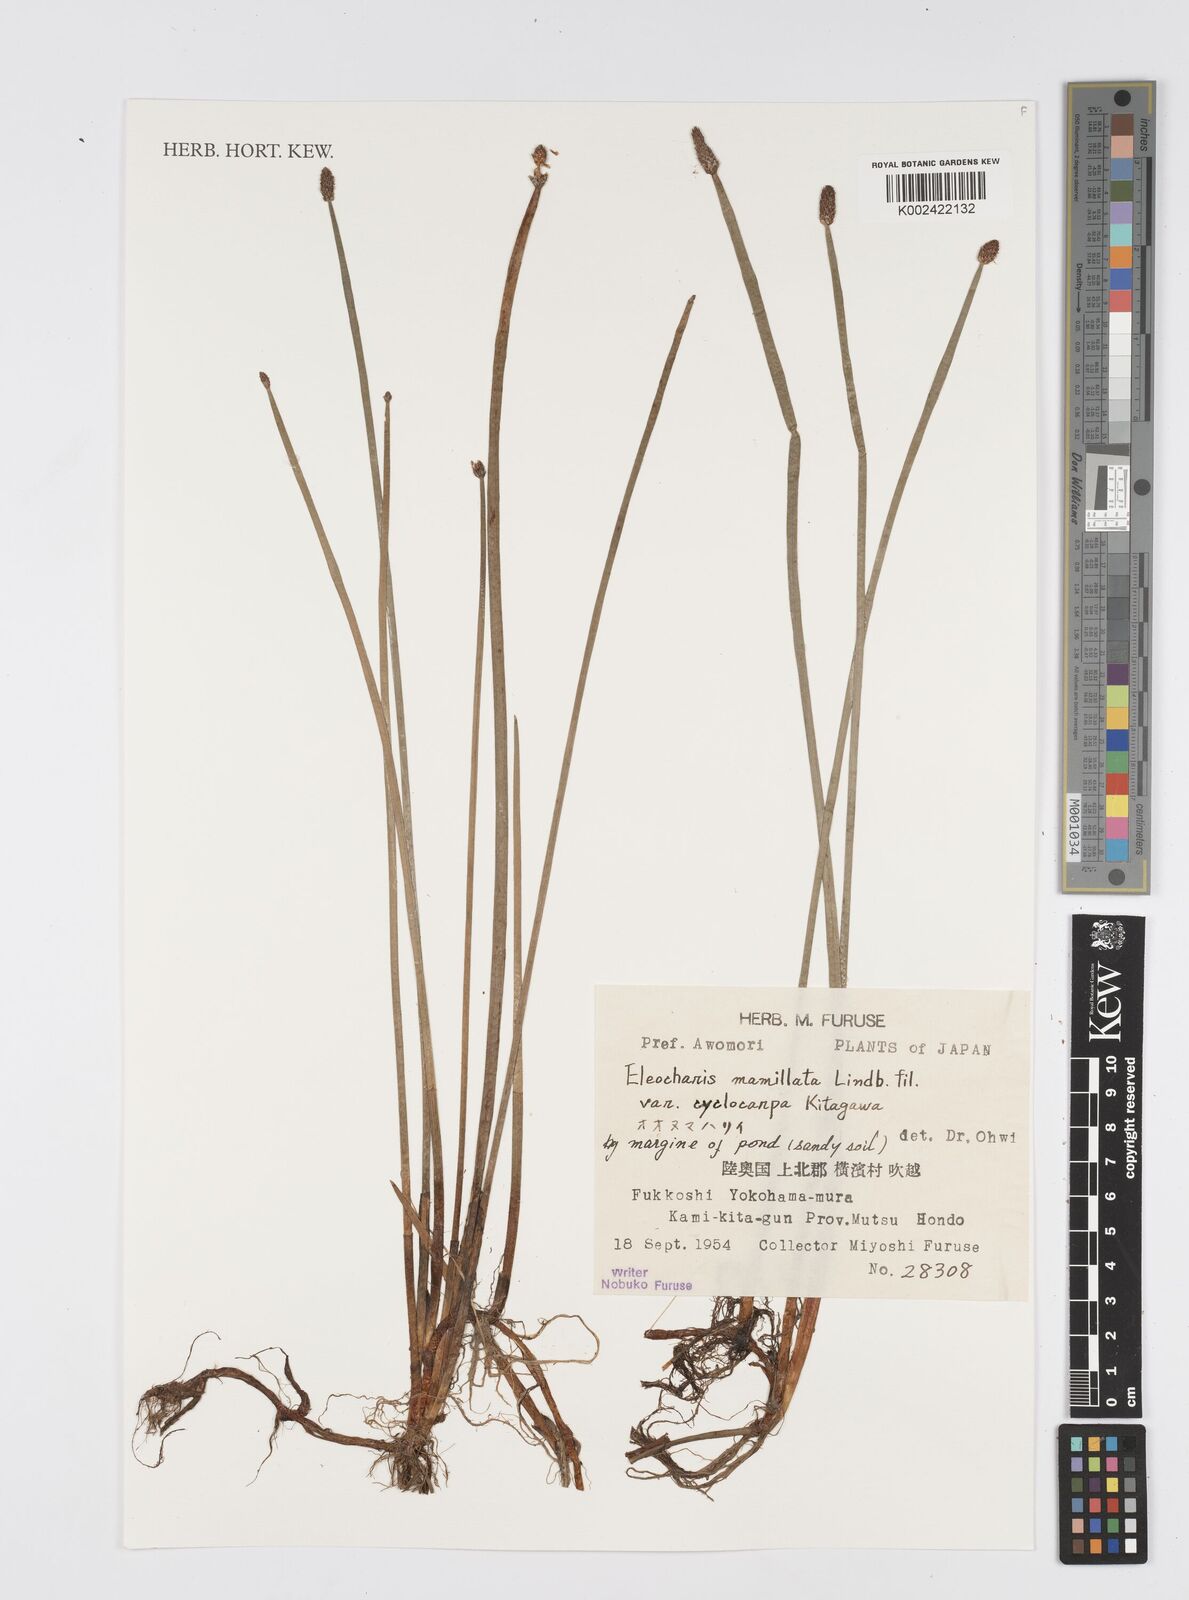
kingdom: Plantae
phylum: Tracheophyta
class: Liliopsida
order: Poales
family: Cyperaceae
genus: Eleocharis
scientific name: Eleocharis mamillata
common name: Northern spike-rush
